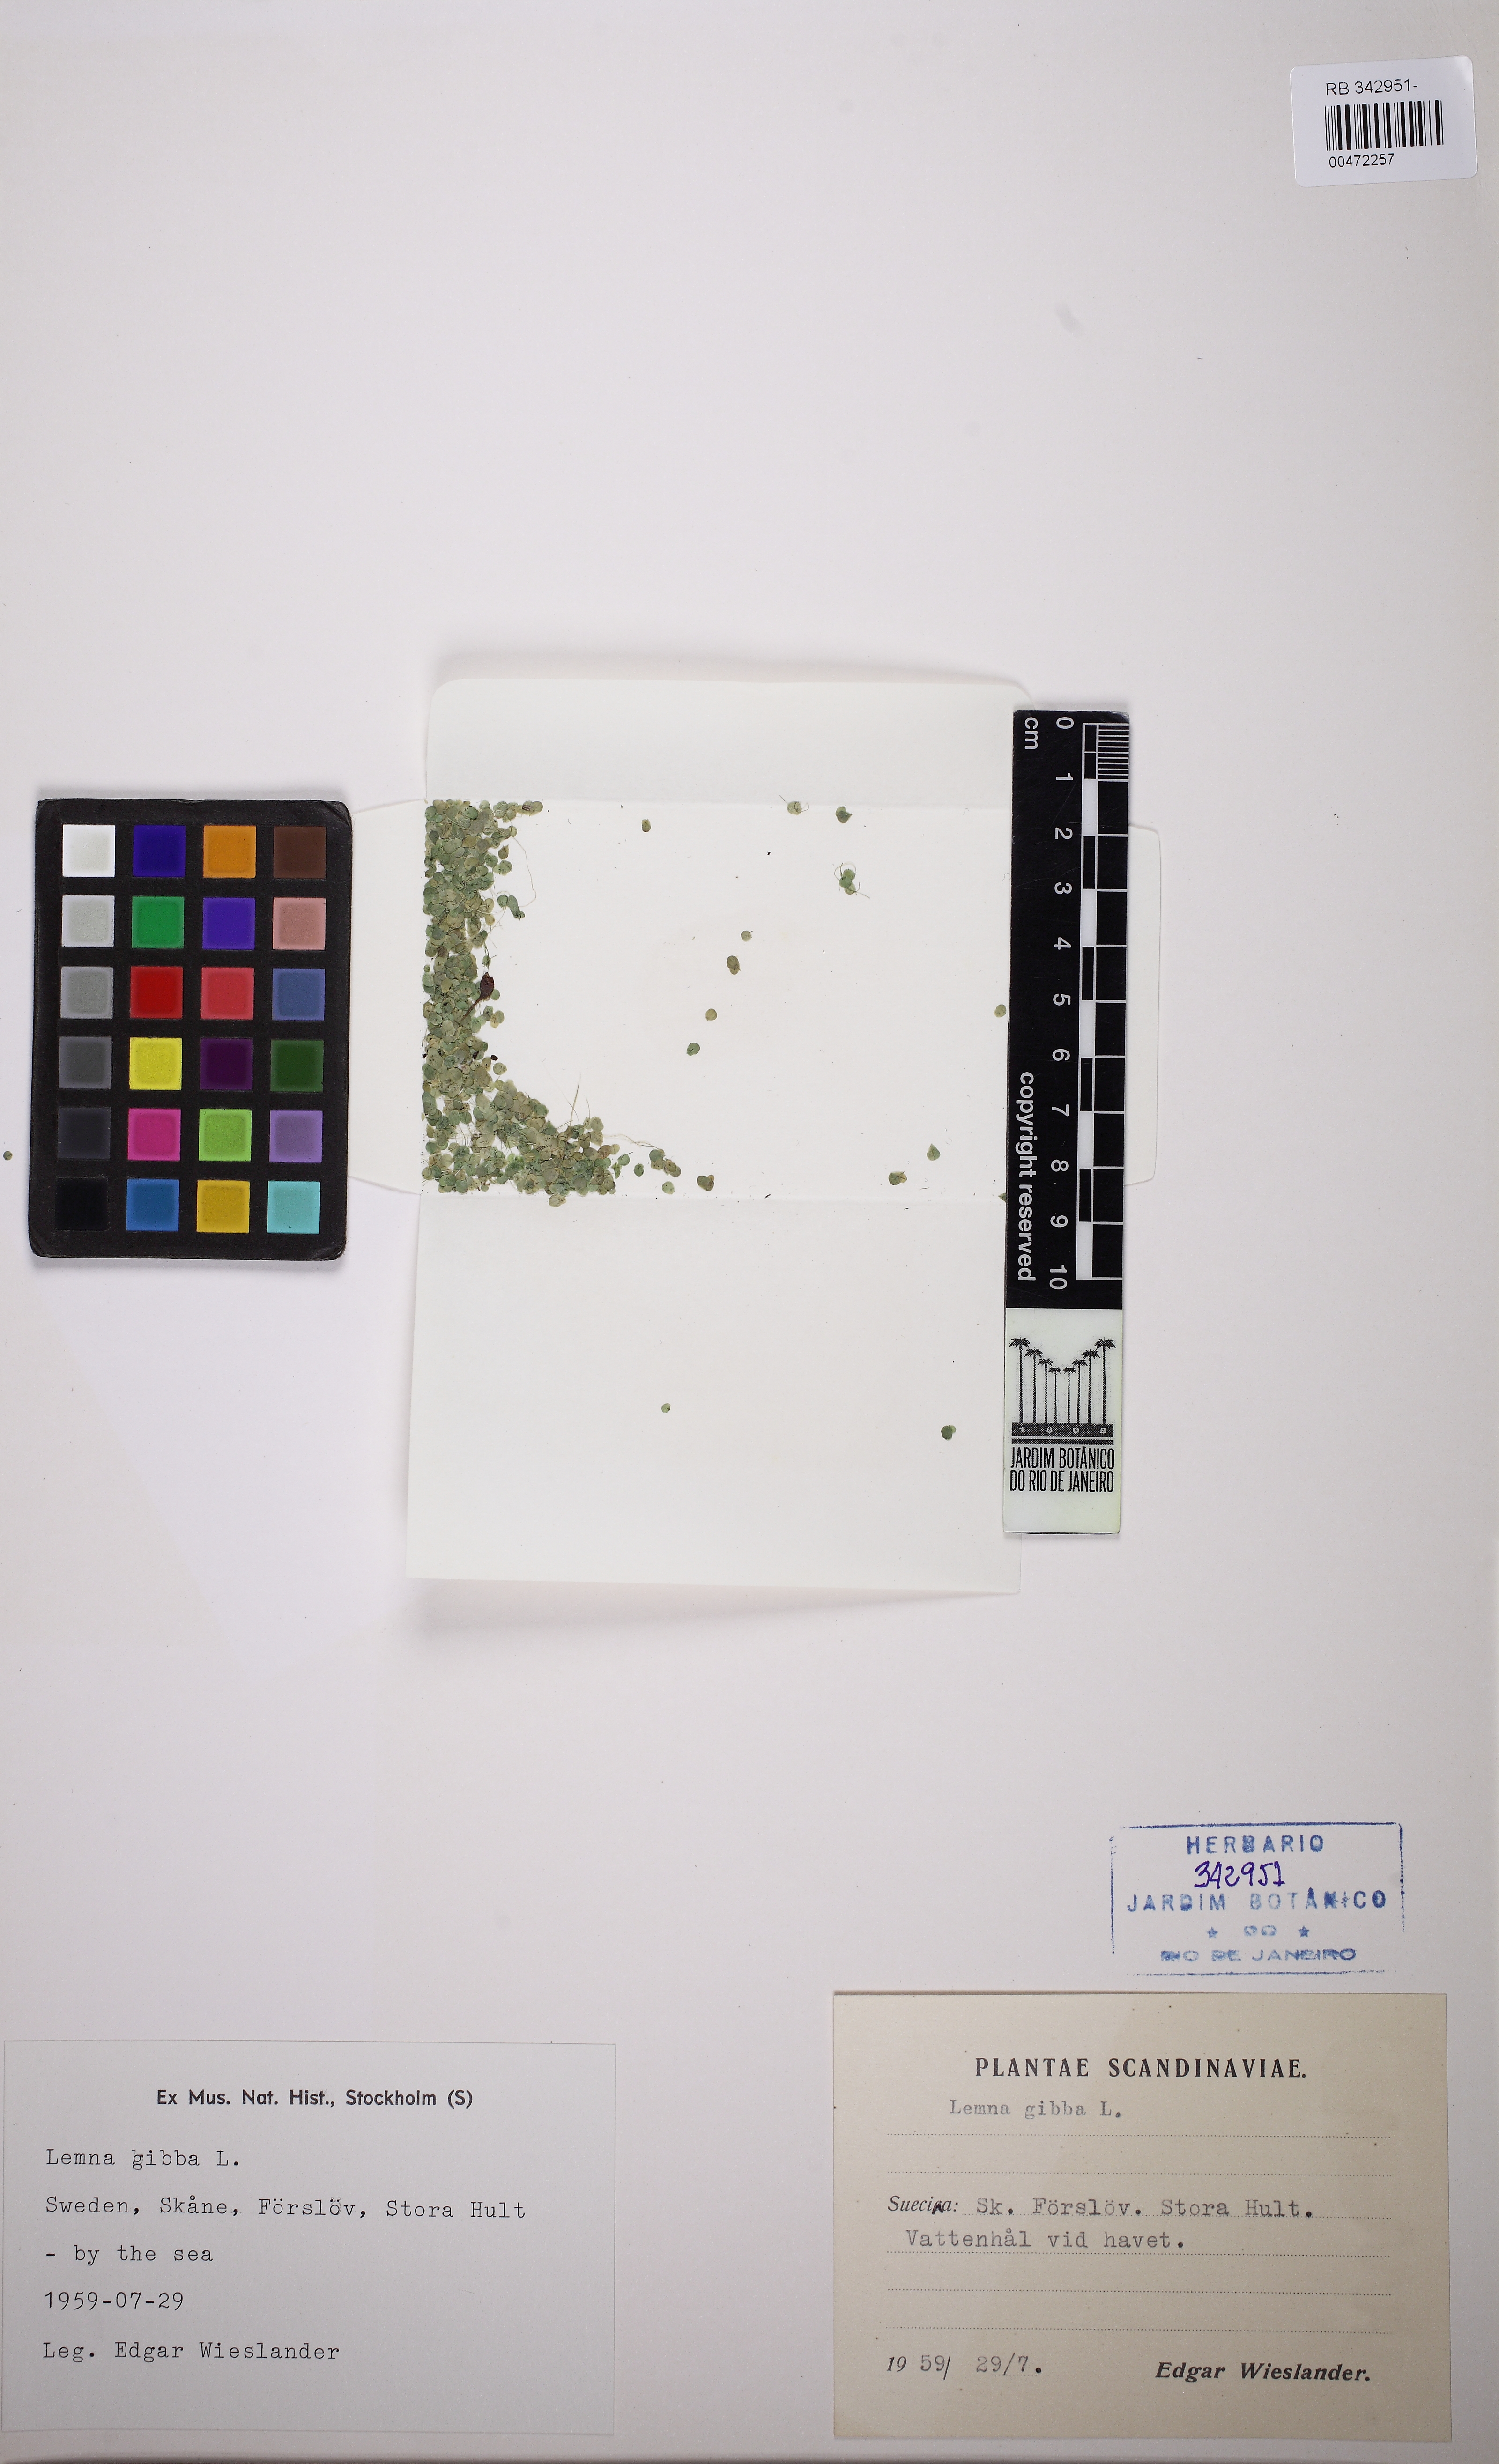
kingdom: Plantae
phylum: Tracheophyta
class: Liliopsida
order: Alismatales
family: Araceae
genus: Lemna
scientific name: Lemna gibba
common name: Fat duckweed
